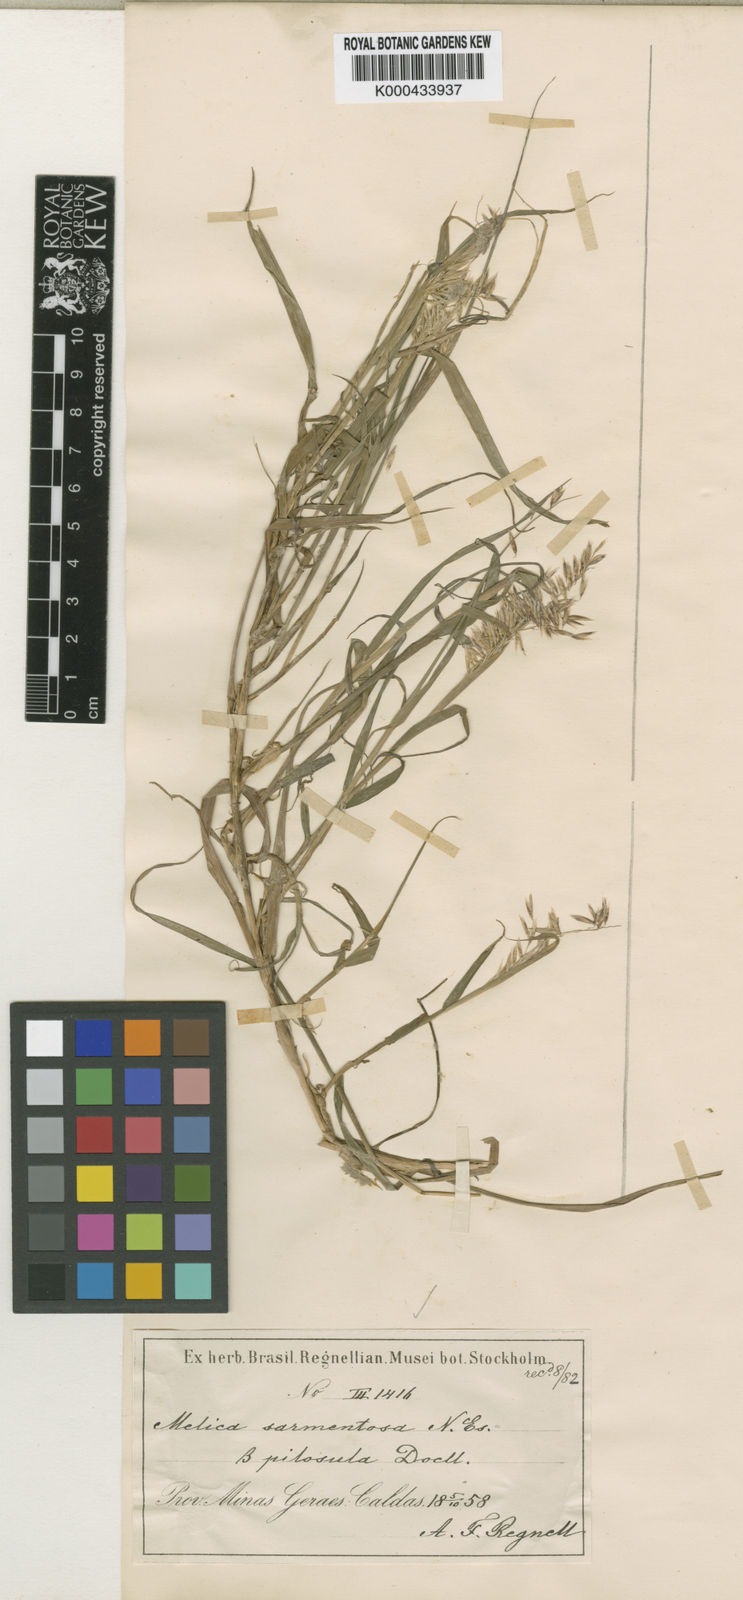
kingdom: Plantae
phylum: Tracheophyta
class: Liliopsida
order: Poales
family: Poaceae
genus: Melica
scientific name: Melica sarmentosa
